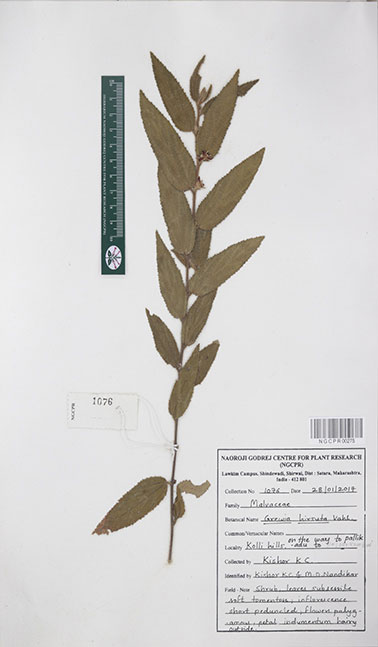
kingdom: Plantae
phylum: Tracheophyta
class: Magnoliopsida
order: Malvales
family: Malvaceae
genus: Grewia
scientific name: Grewia hirsuta
